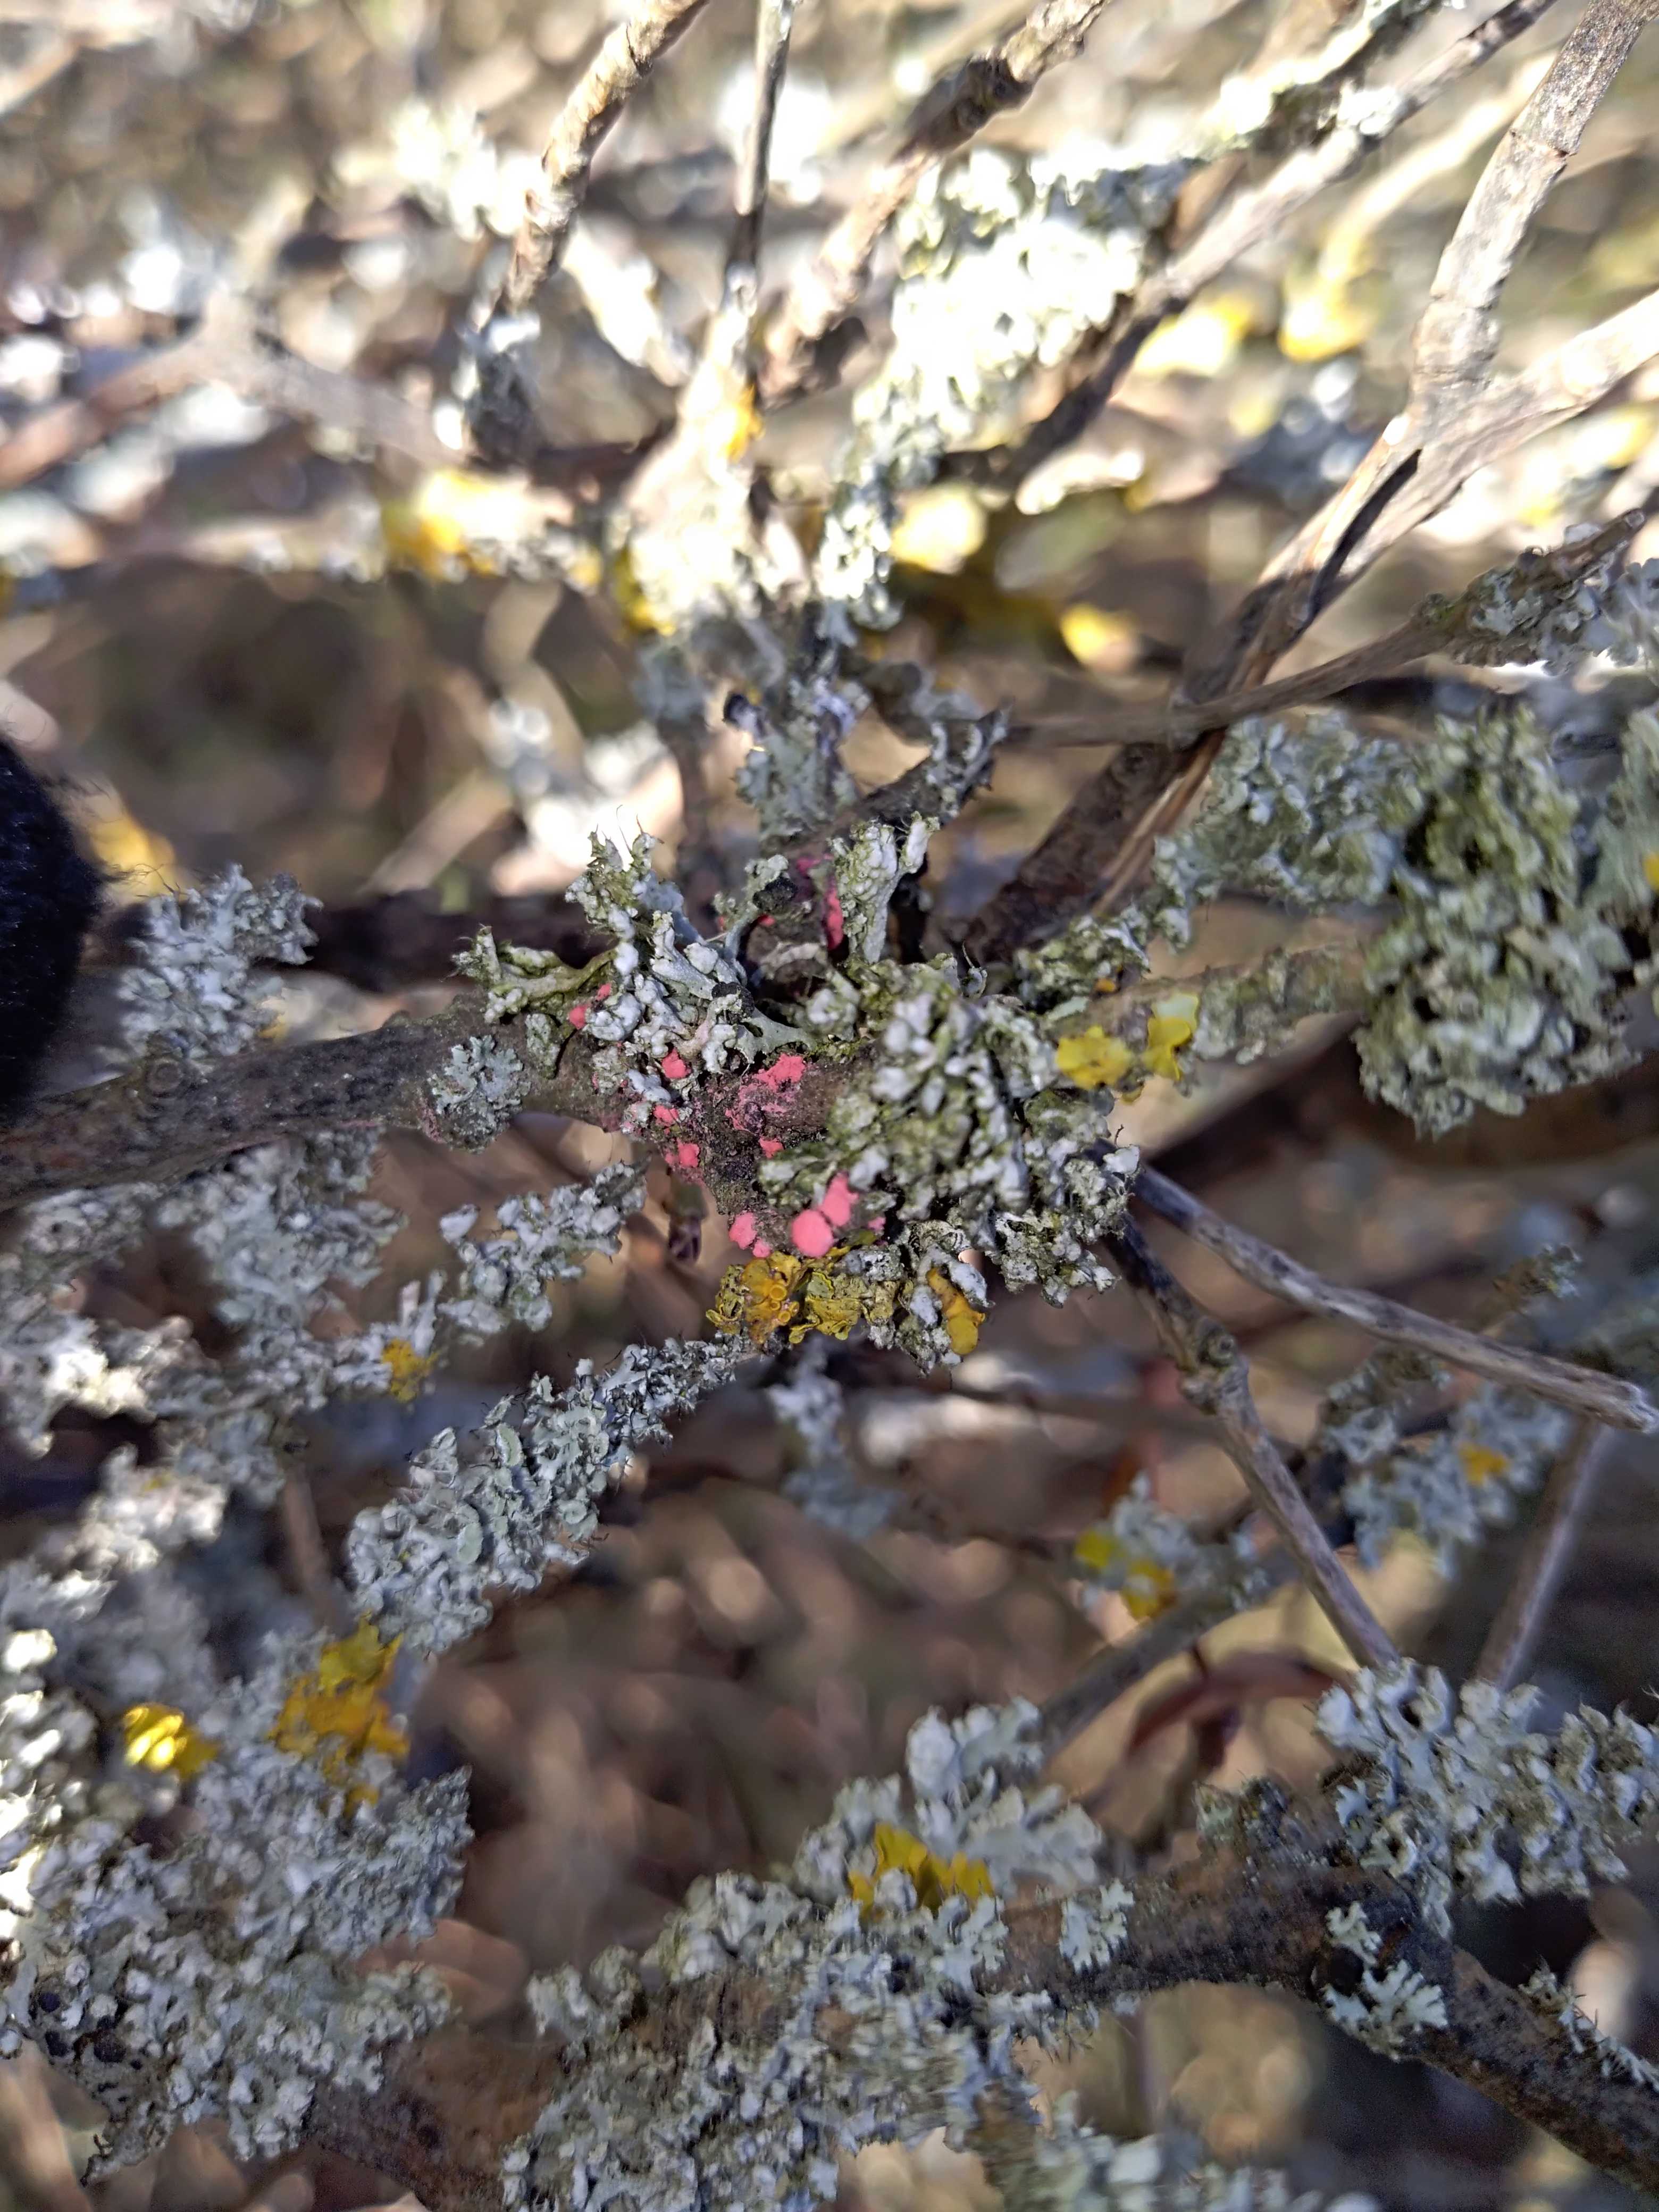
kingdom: Fungi
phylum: Ascomycota
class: Sordariomycetes
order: Hypocreales
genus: Illosporiopsis
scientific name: Illosporiopsis christiansenii
